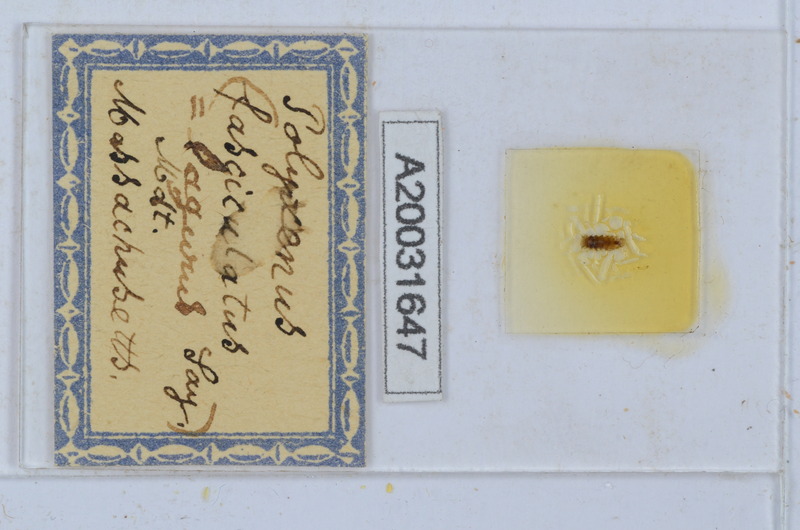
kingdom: Animalia
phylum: Arthropoda
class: Diplopoda
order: Polyxenida
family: Polyxenidae
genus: Polyxenus
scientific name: Polyxenus lagurus
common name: Bristly millipede
